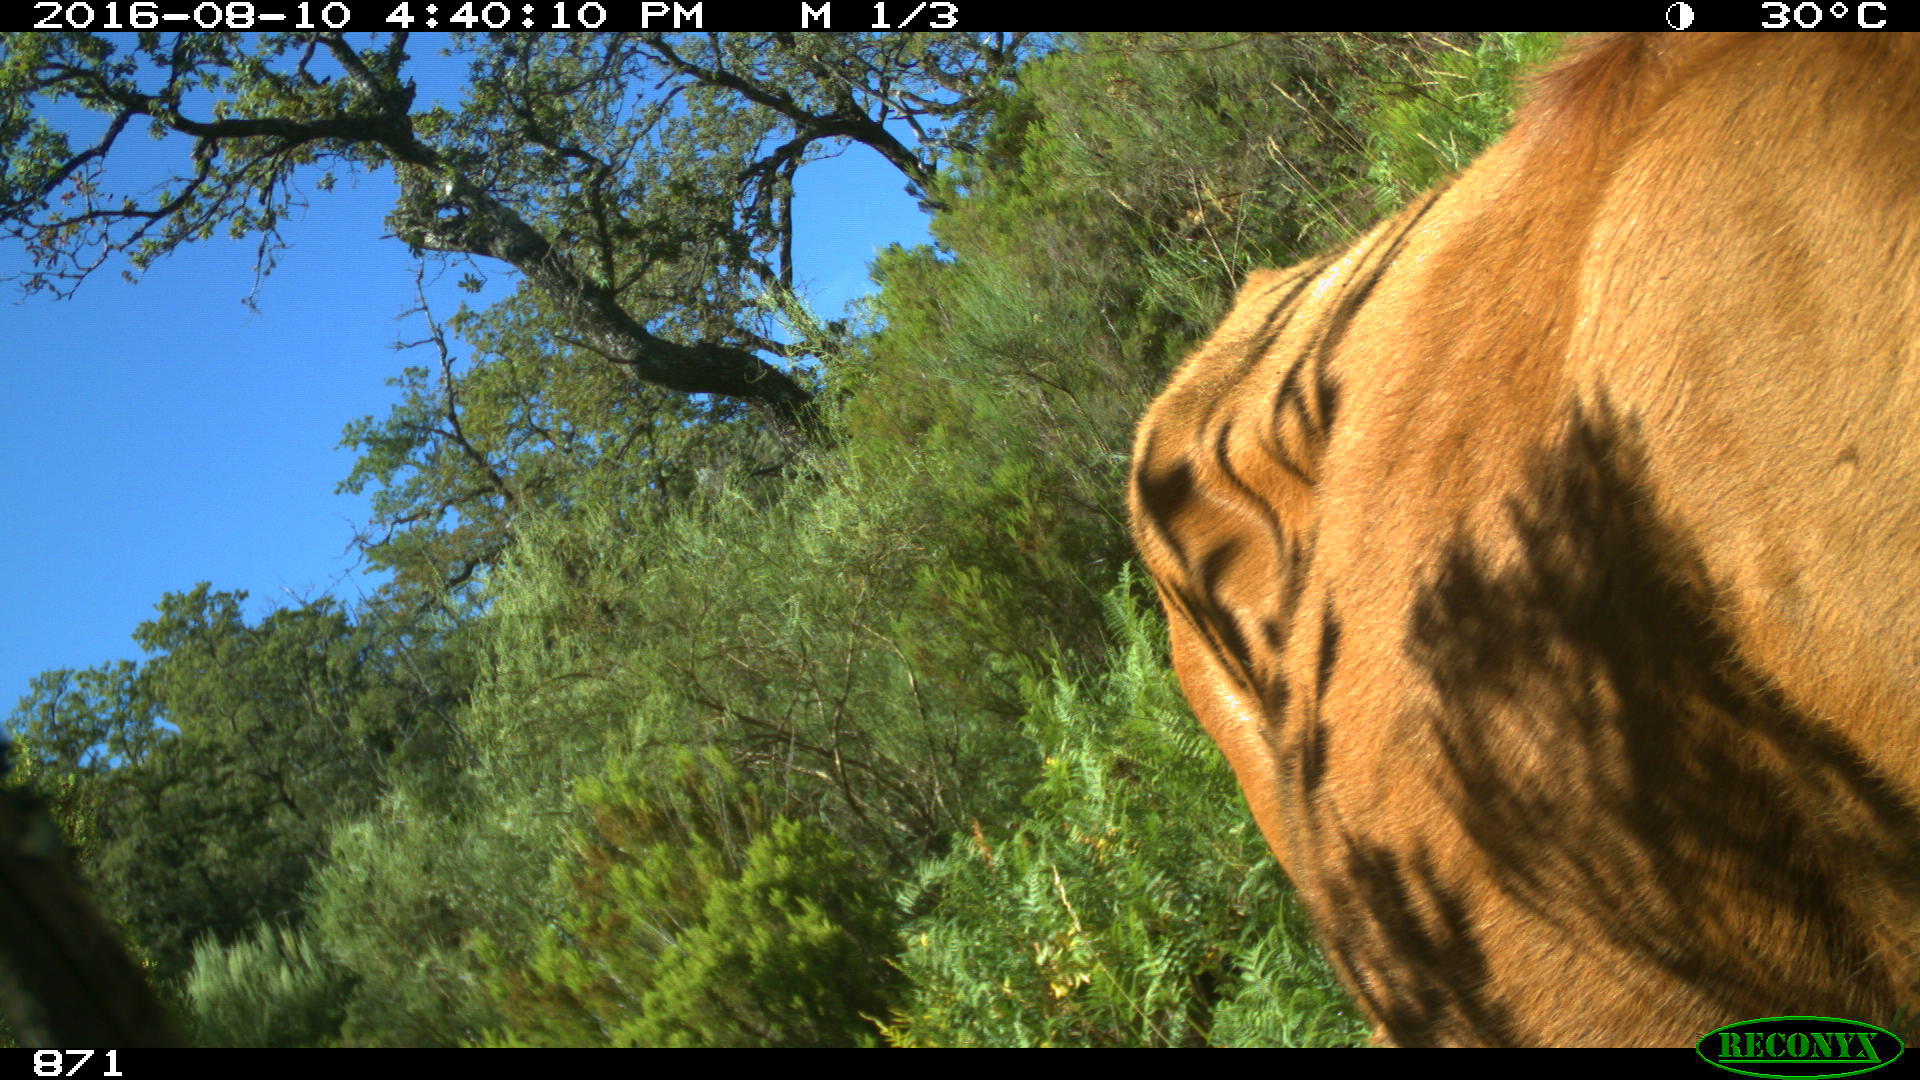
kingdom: Animalia
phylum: Chordata
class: Mammalia
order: Artiodactyla
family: Bovidae
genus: Bos
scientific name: Bos taurus
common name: Domesticated cattle
